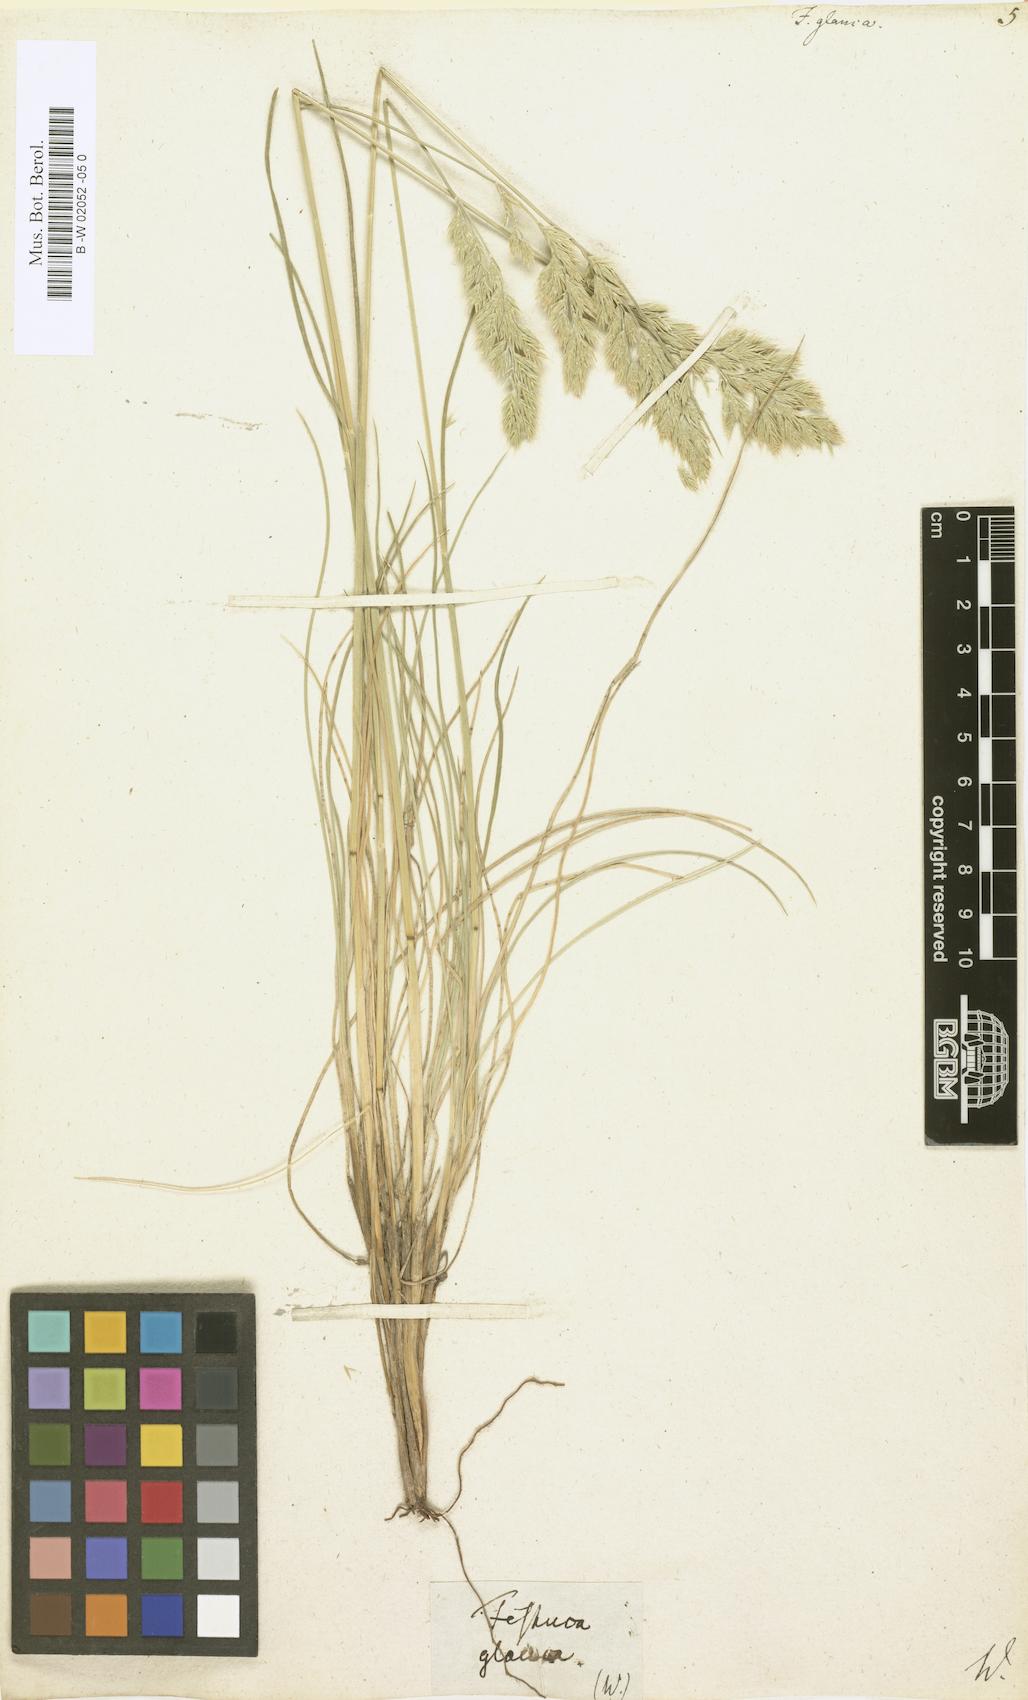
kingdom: Plantae
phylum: Tracheophyta
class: Liliopsida
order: Poales
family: Poaceae
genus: Festuca
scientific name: Festuca glauca
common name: Blue fescue
